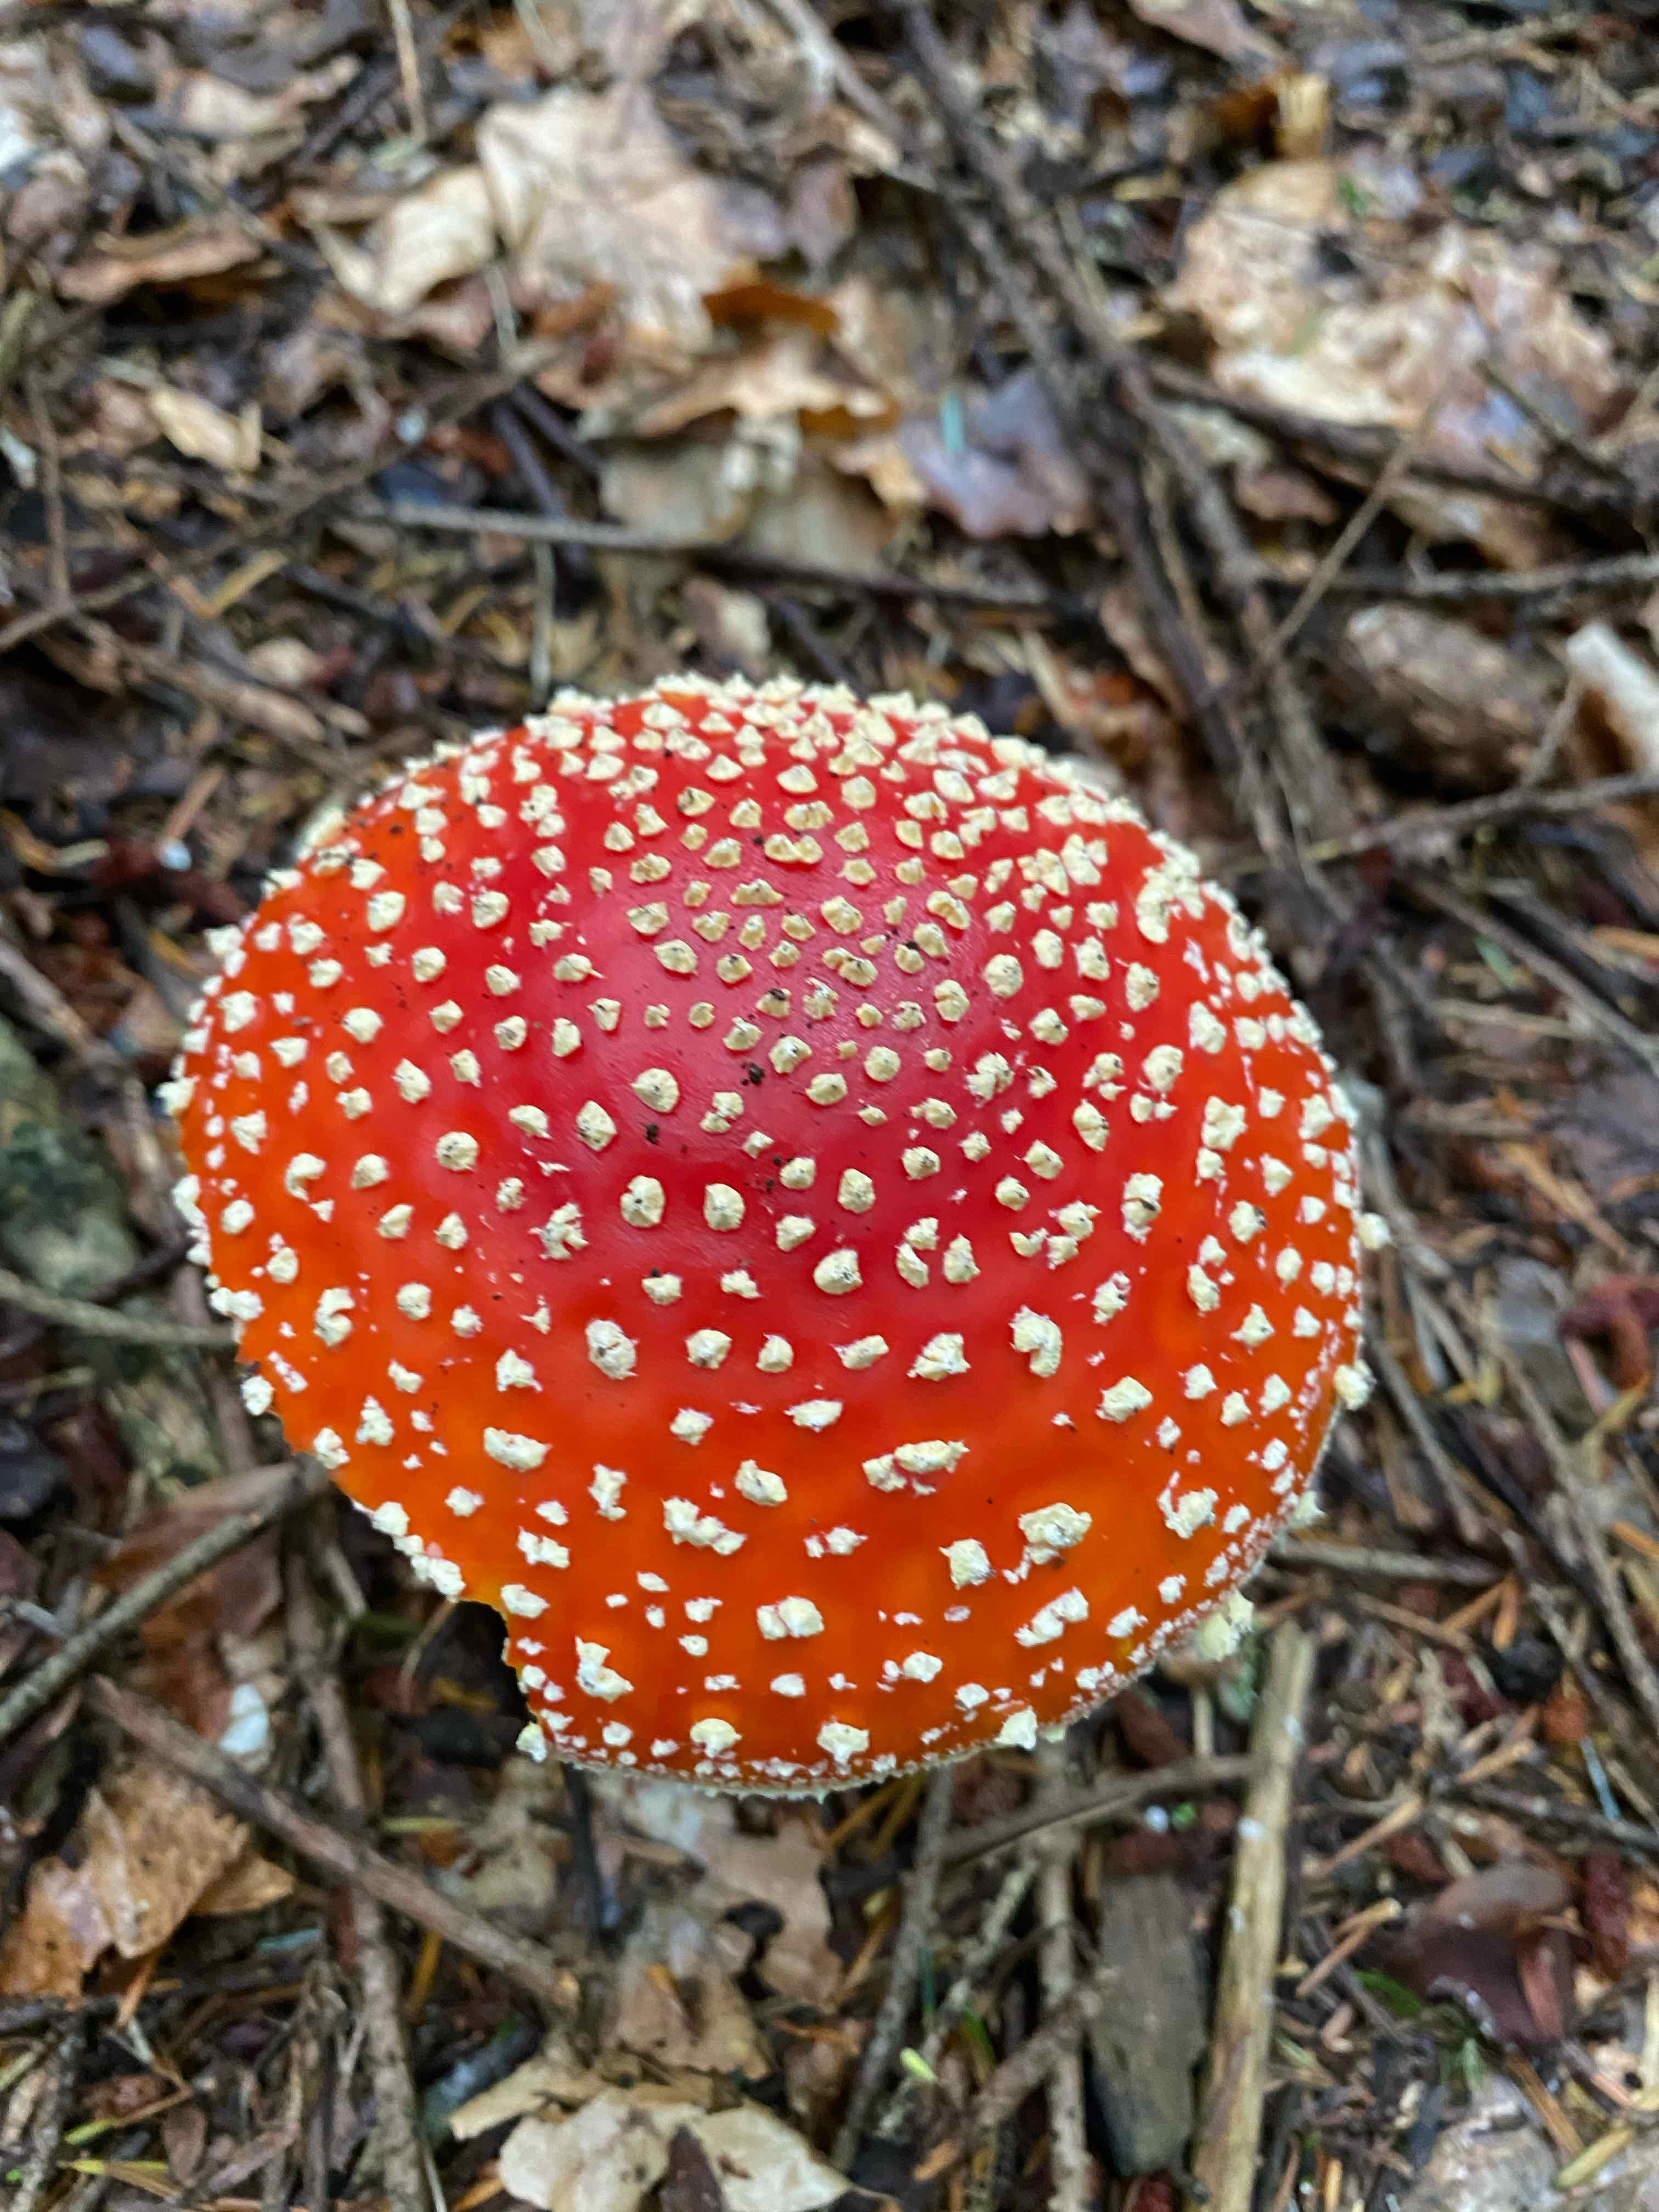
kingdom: Fungi
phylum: Basidiomycota
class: Agaricomycetes
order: Agaricales
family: Amanitaceae
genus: Amanita
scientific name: Amanita muscaria
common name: rød fluesvamp
